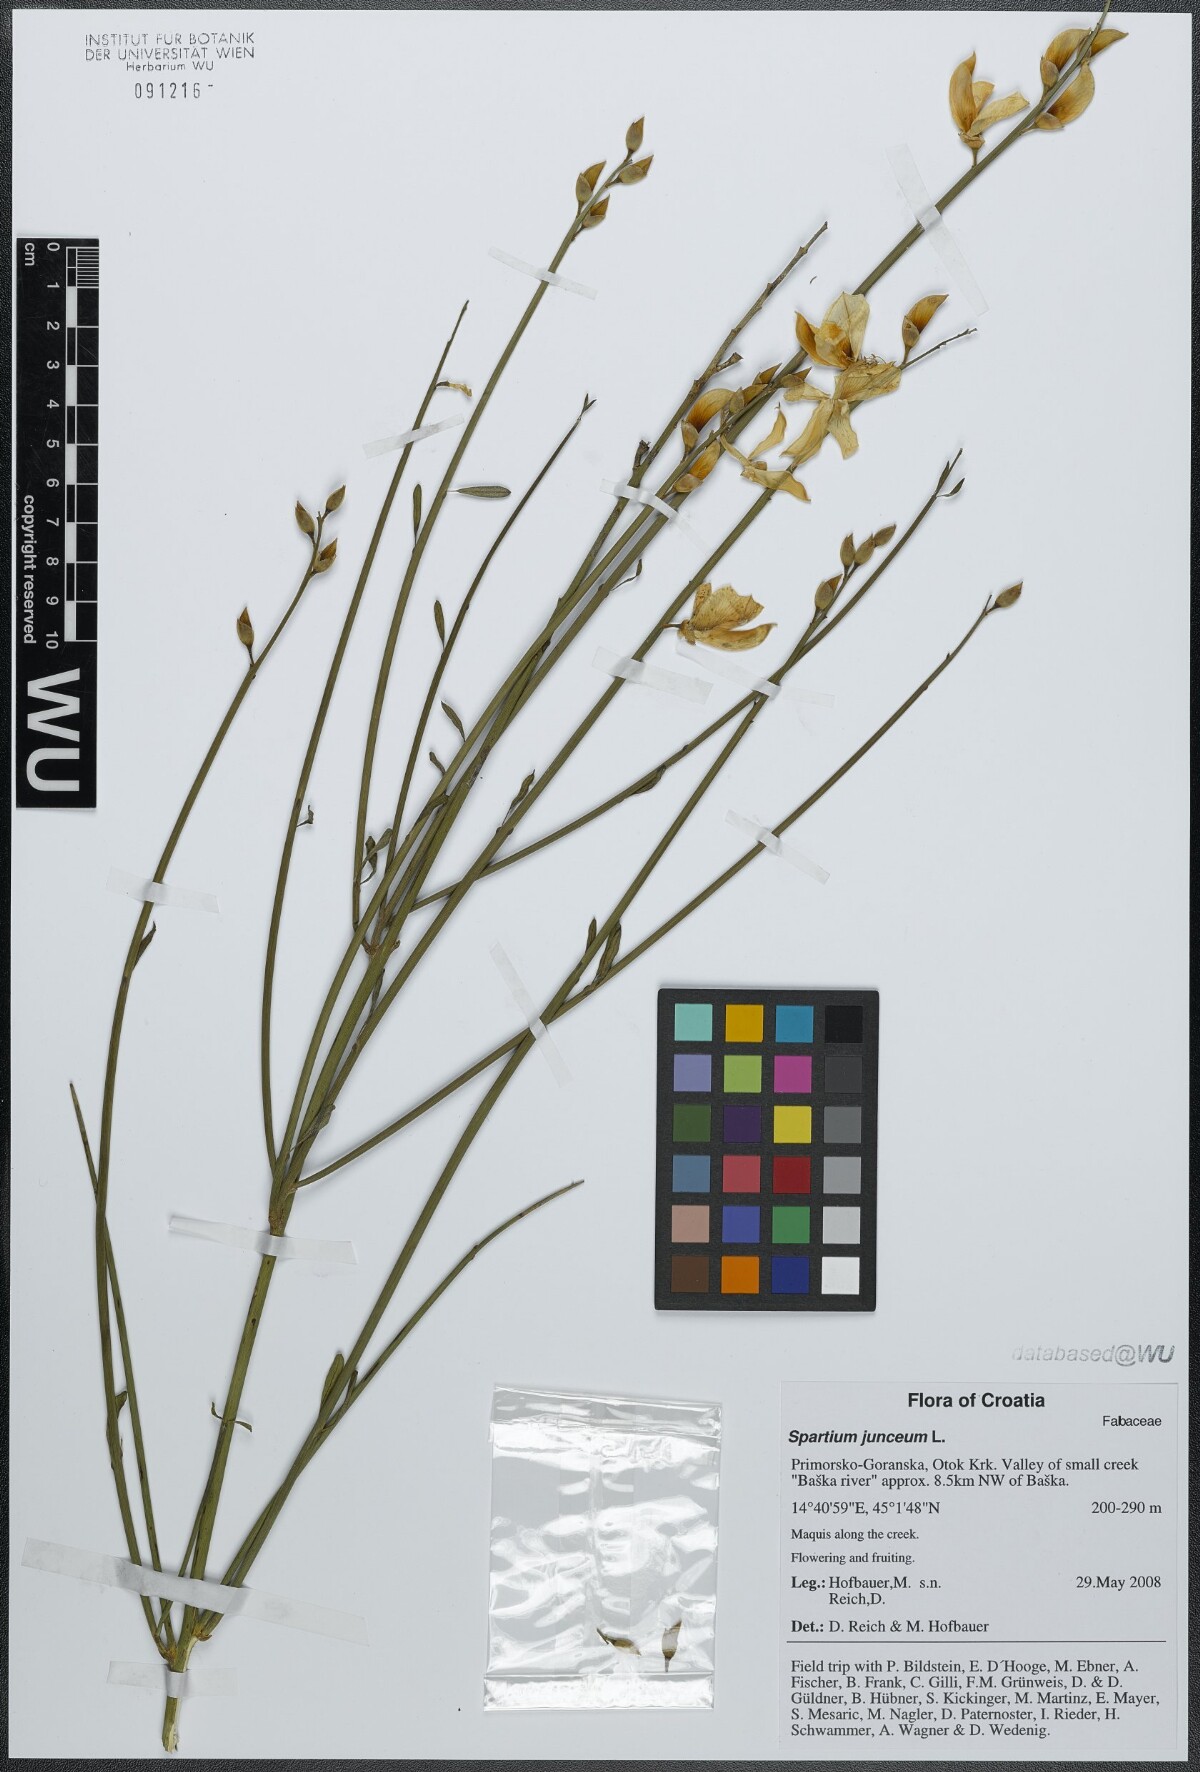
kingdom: Plantae
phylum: Tracheophyta
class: Magnoliopsida
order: Fabales
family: Fabaceae
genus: Spartium
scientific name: Spartium junceum
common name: Spanish broom
